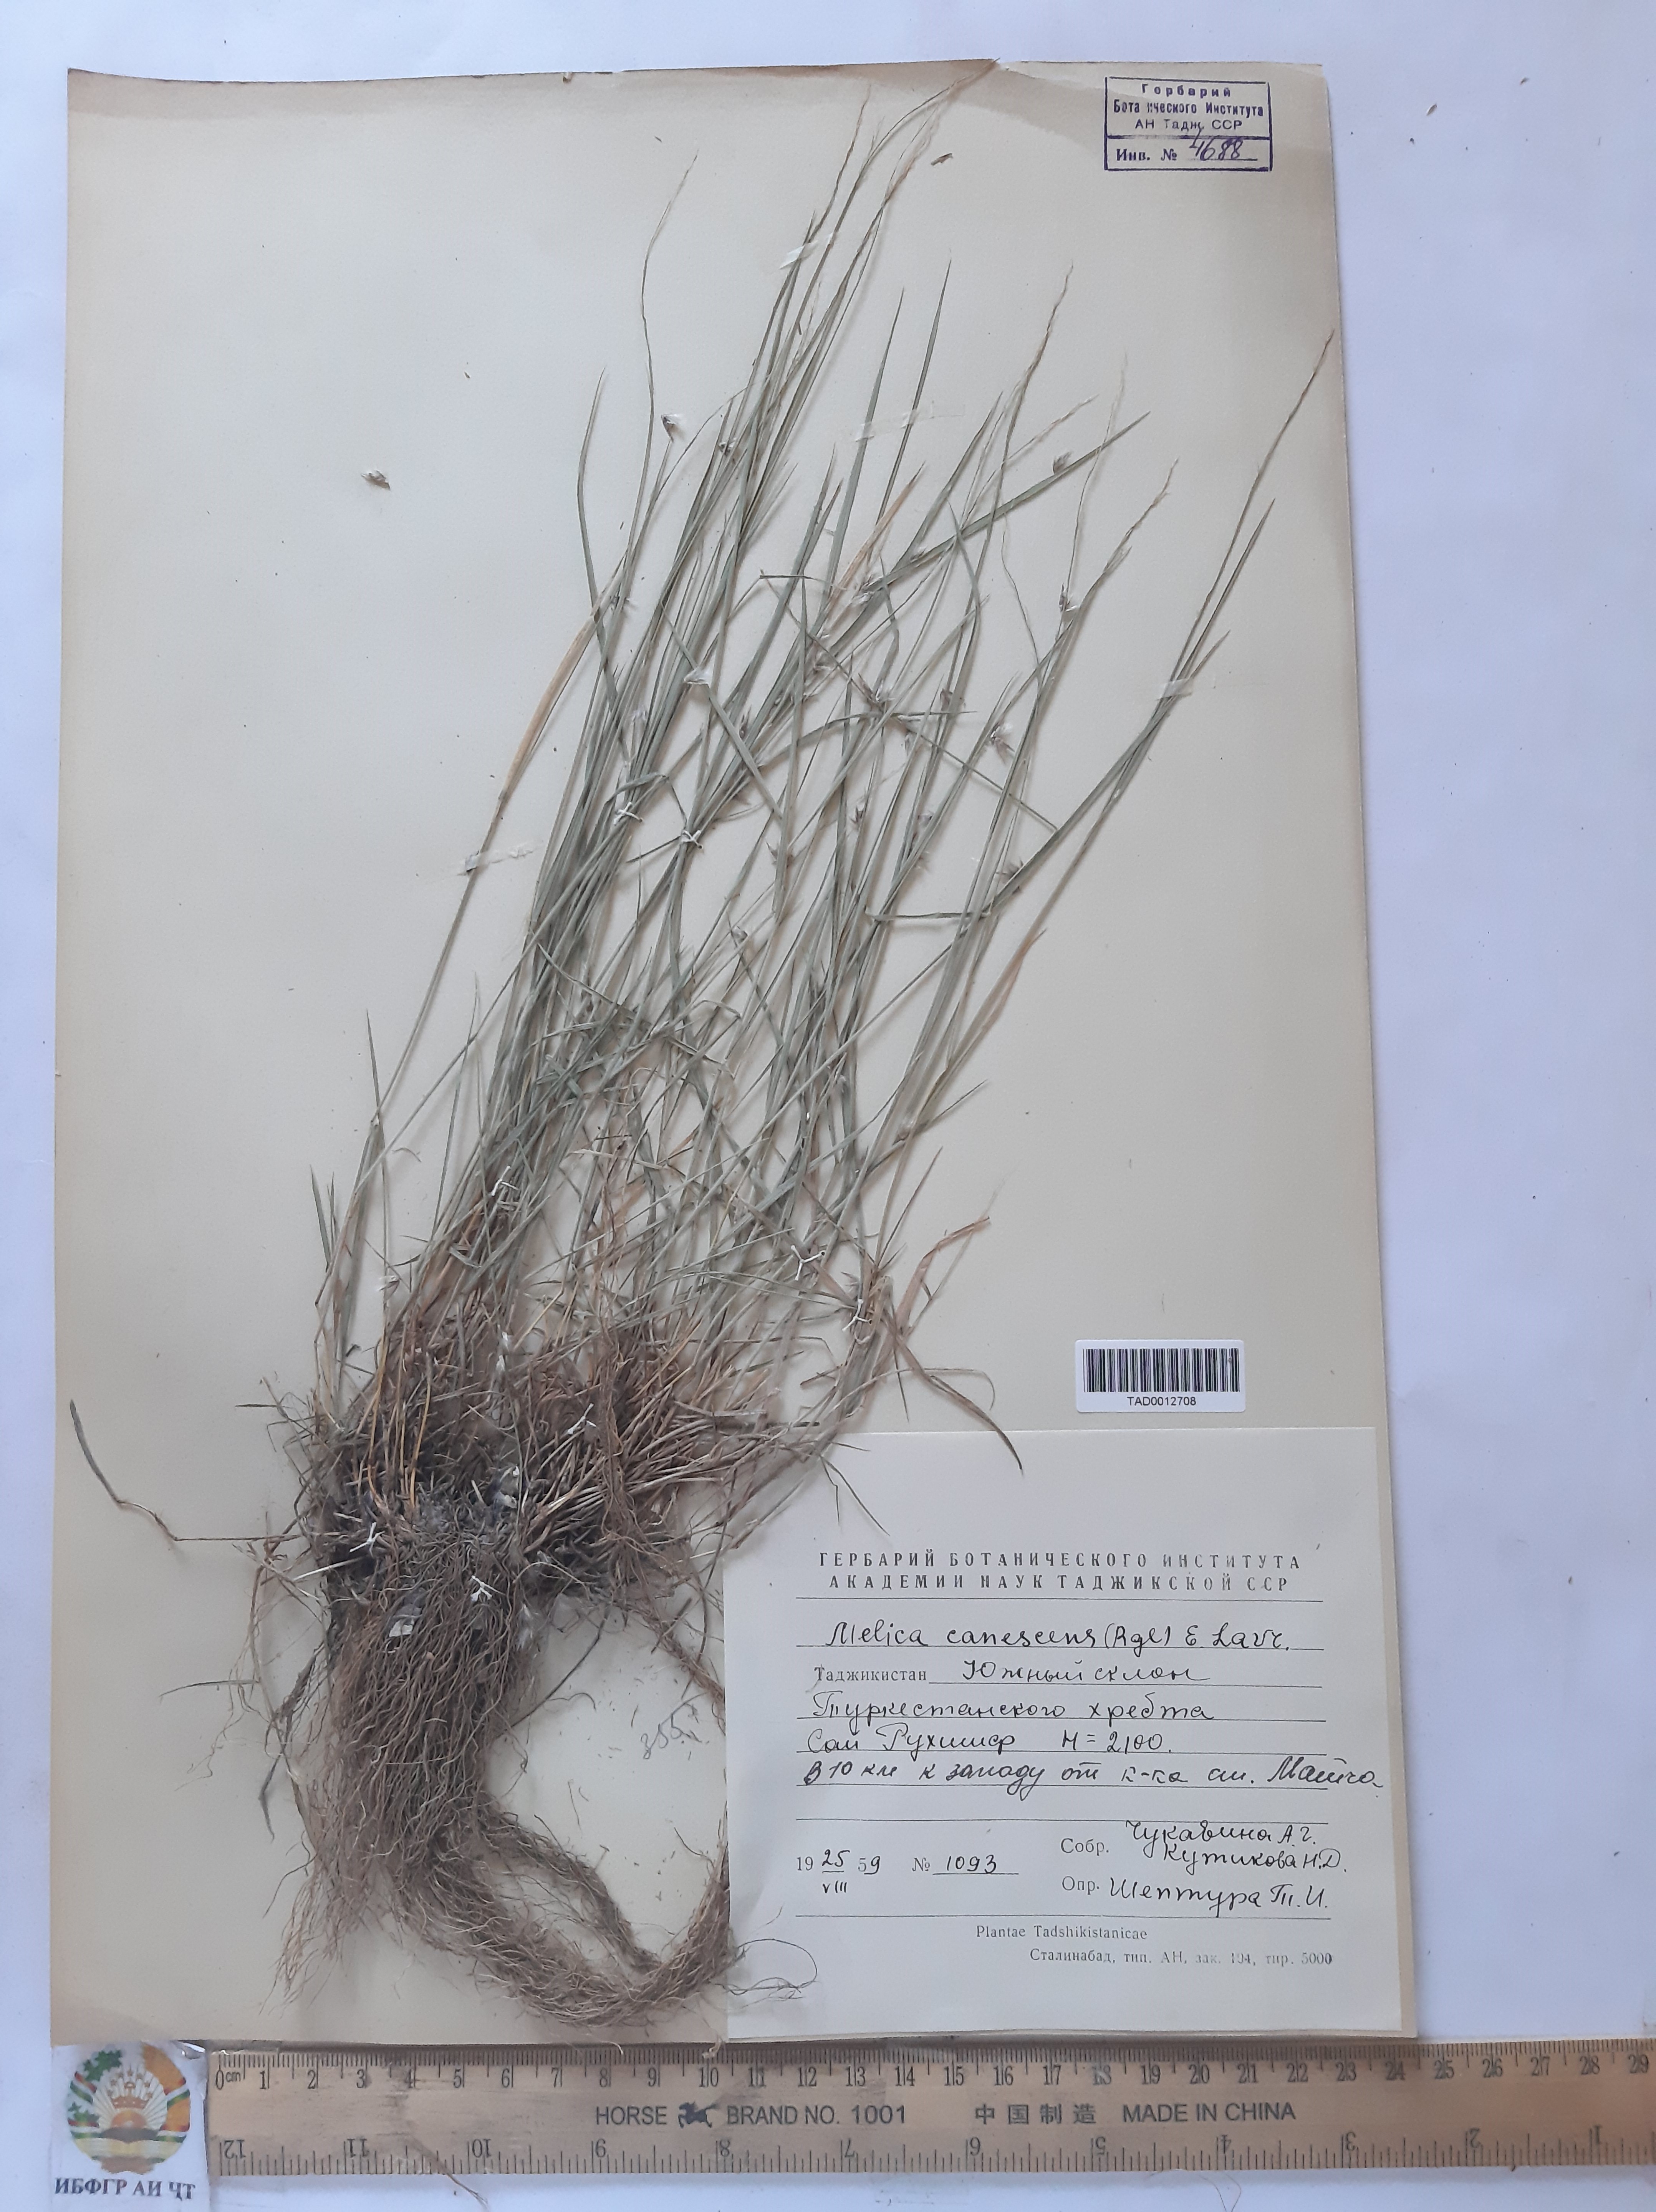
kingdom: Plantae
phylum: Tracheophyta
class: Liliopsida
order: Poales
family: Poaceae
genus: Melica
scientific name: Melica persica
